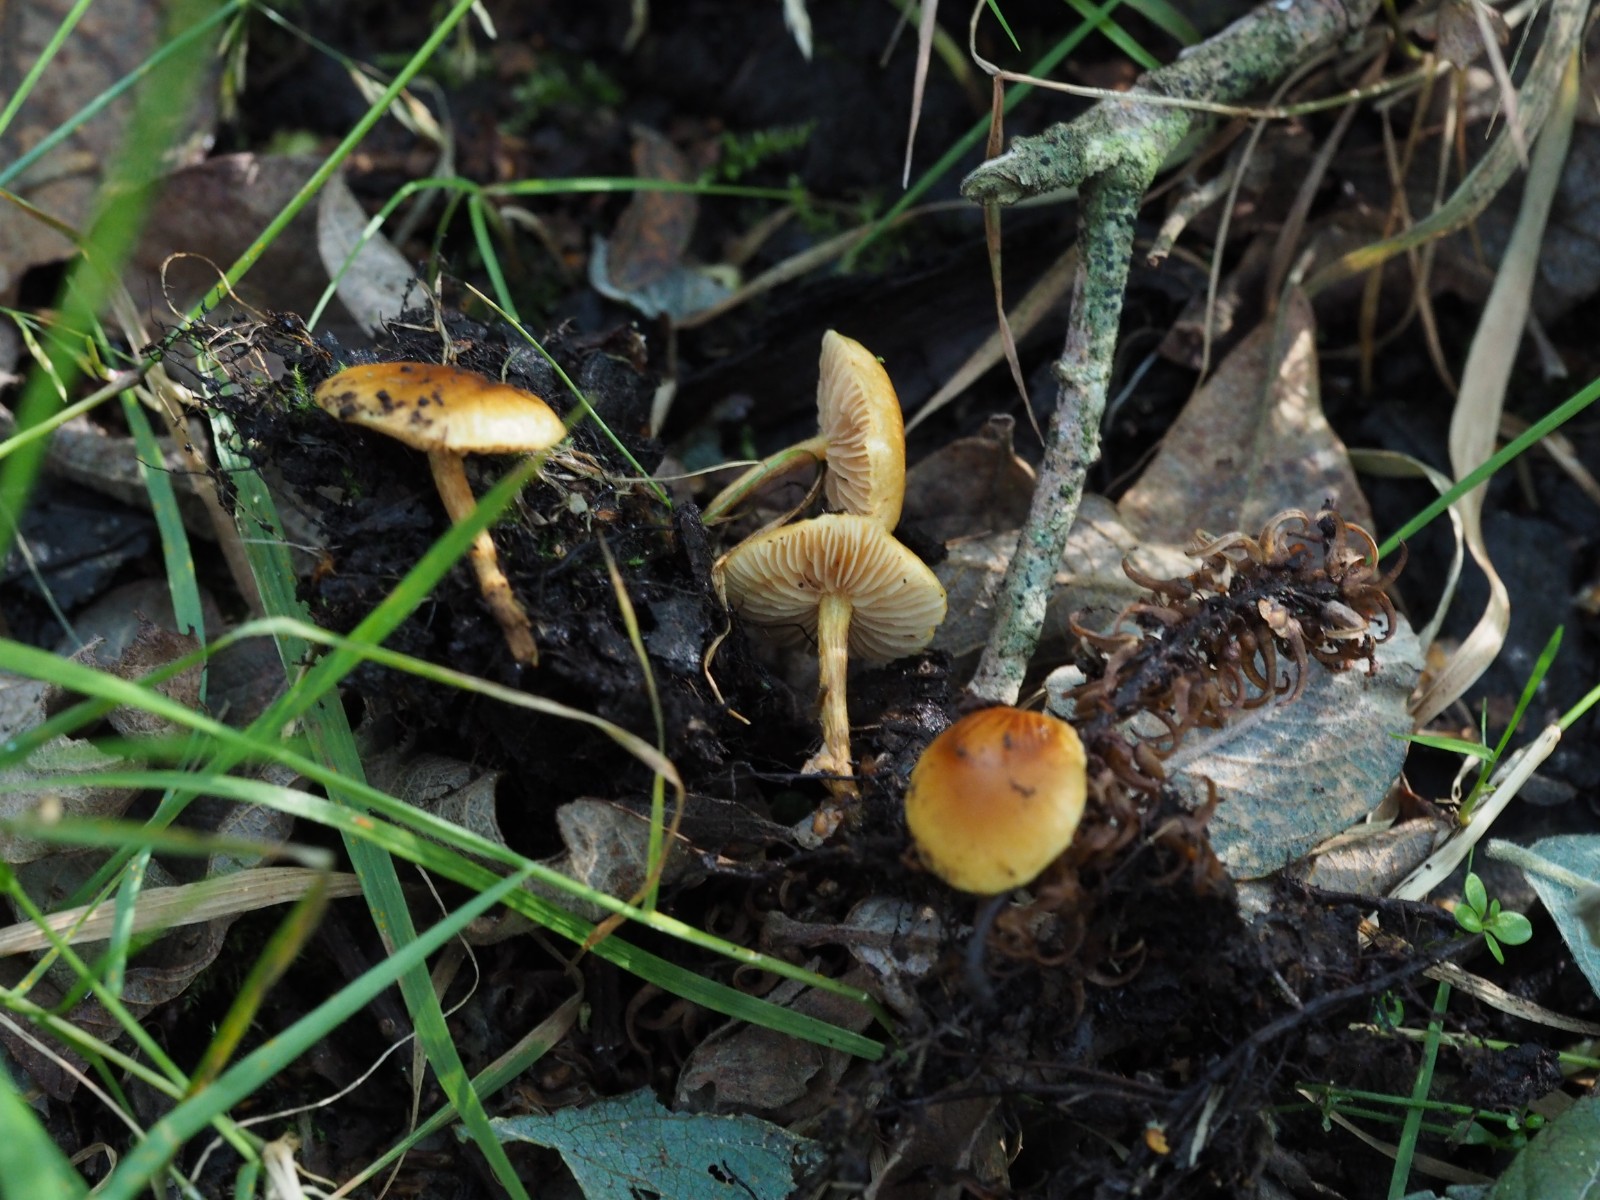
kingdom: Fungi
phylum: Basidiomycota
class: Agaricomycetes
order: Agaricales
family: Strophariaceae
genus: Pholiota
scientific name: Pholiota conissans
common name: pile-skælhat
